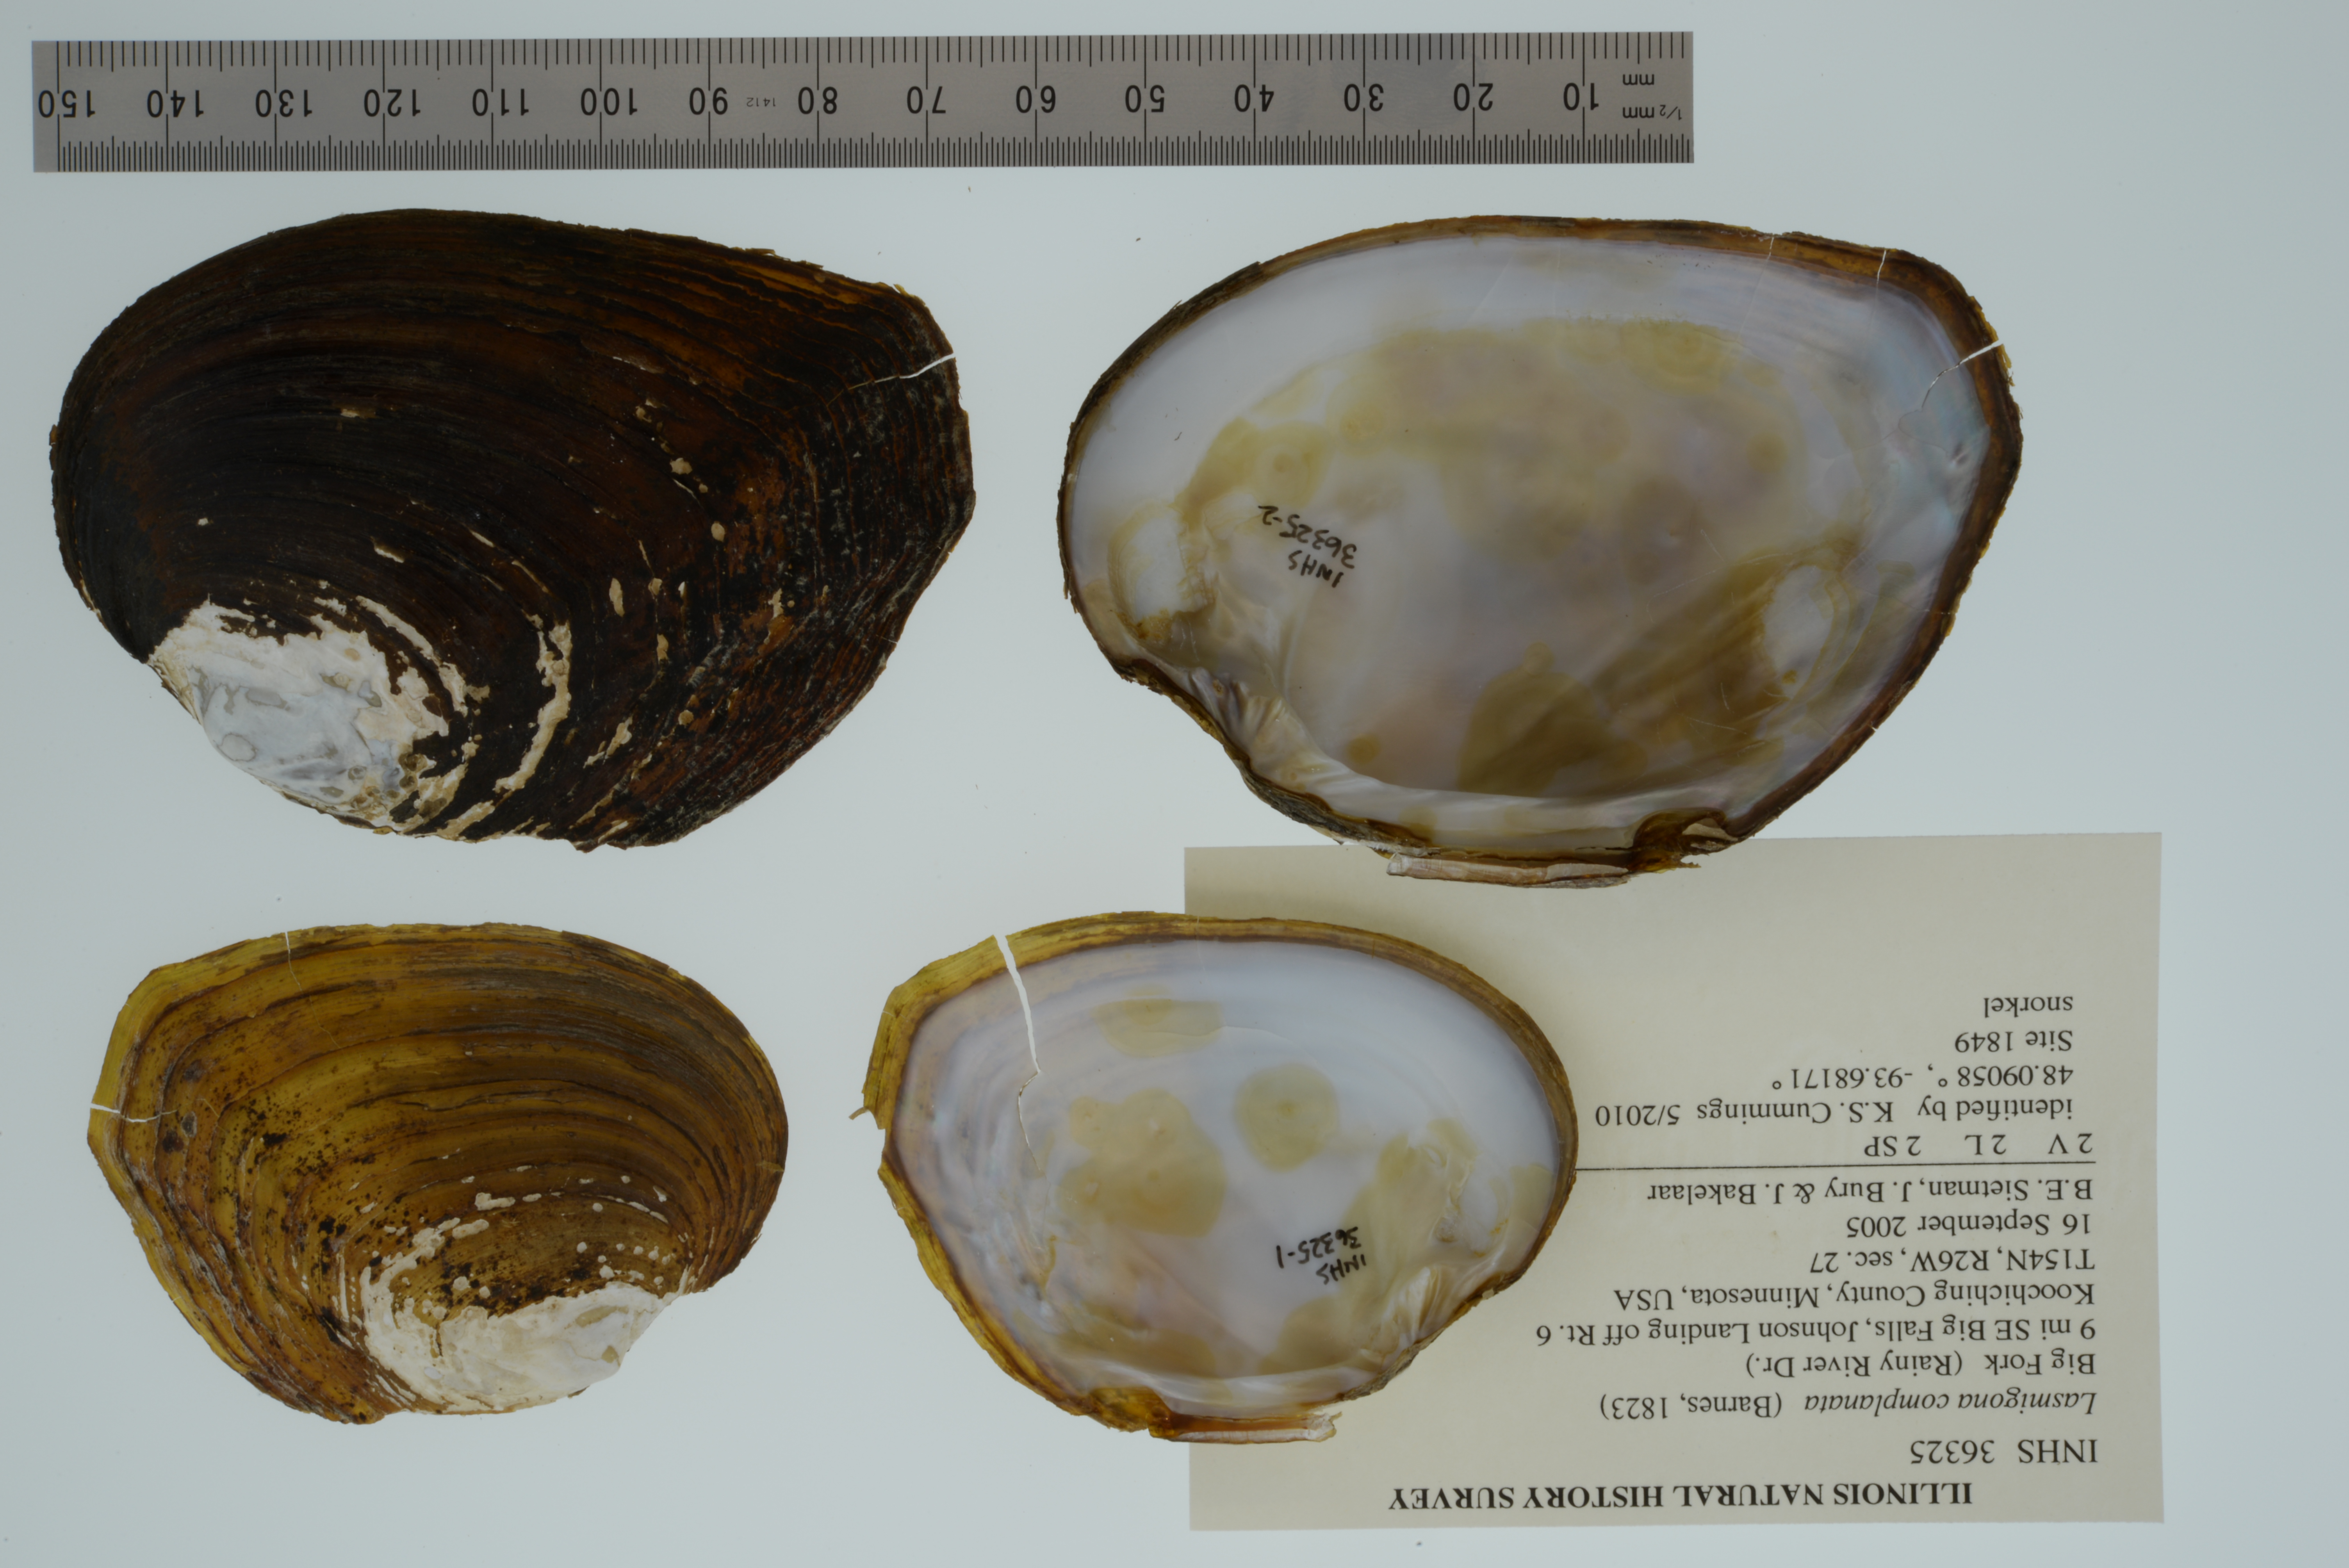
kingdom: Animalia
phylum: Mollusca
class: Bivalvia
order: Unionida
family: Unionidae
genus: Lasmigona
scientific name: Lasmigona complanata
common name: White heelsplitter
